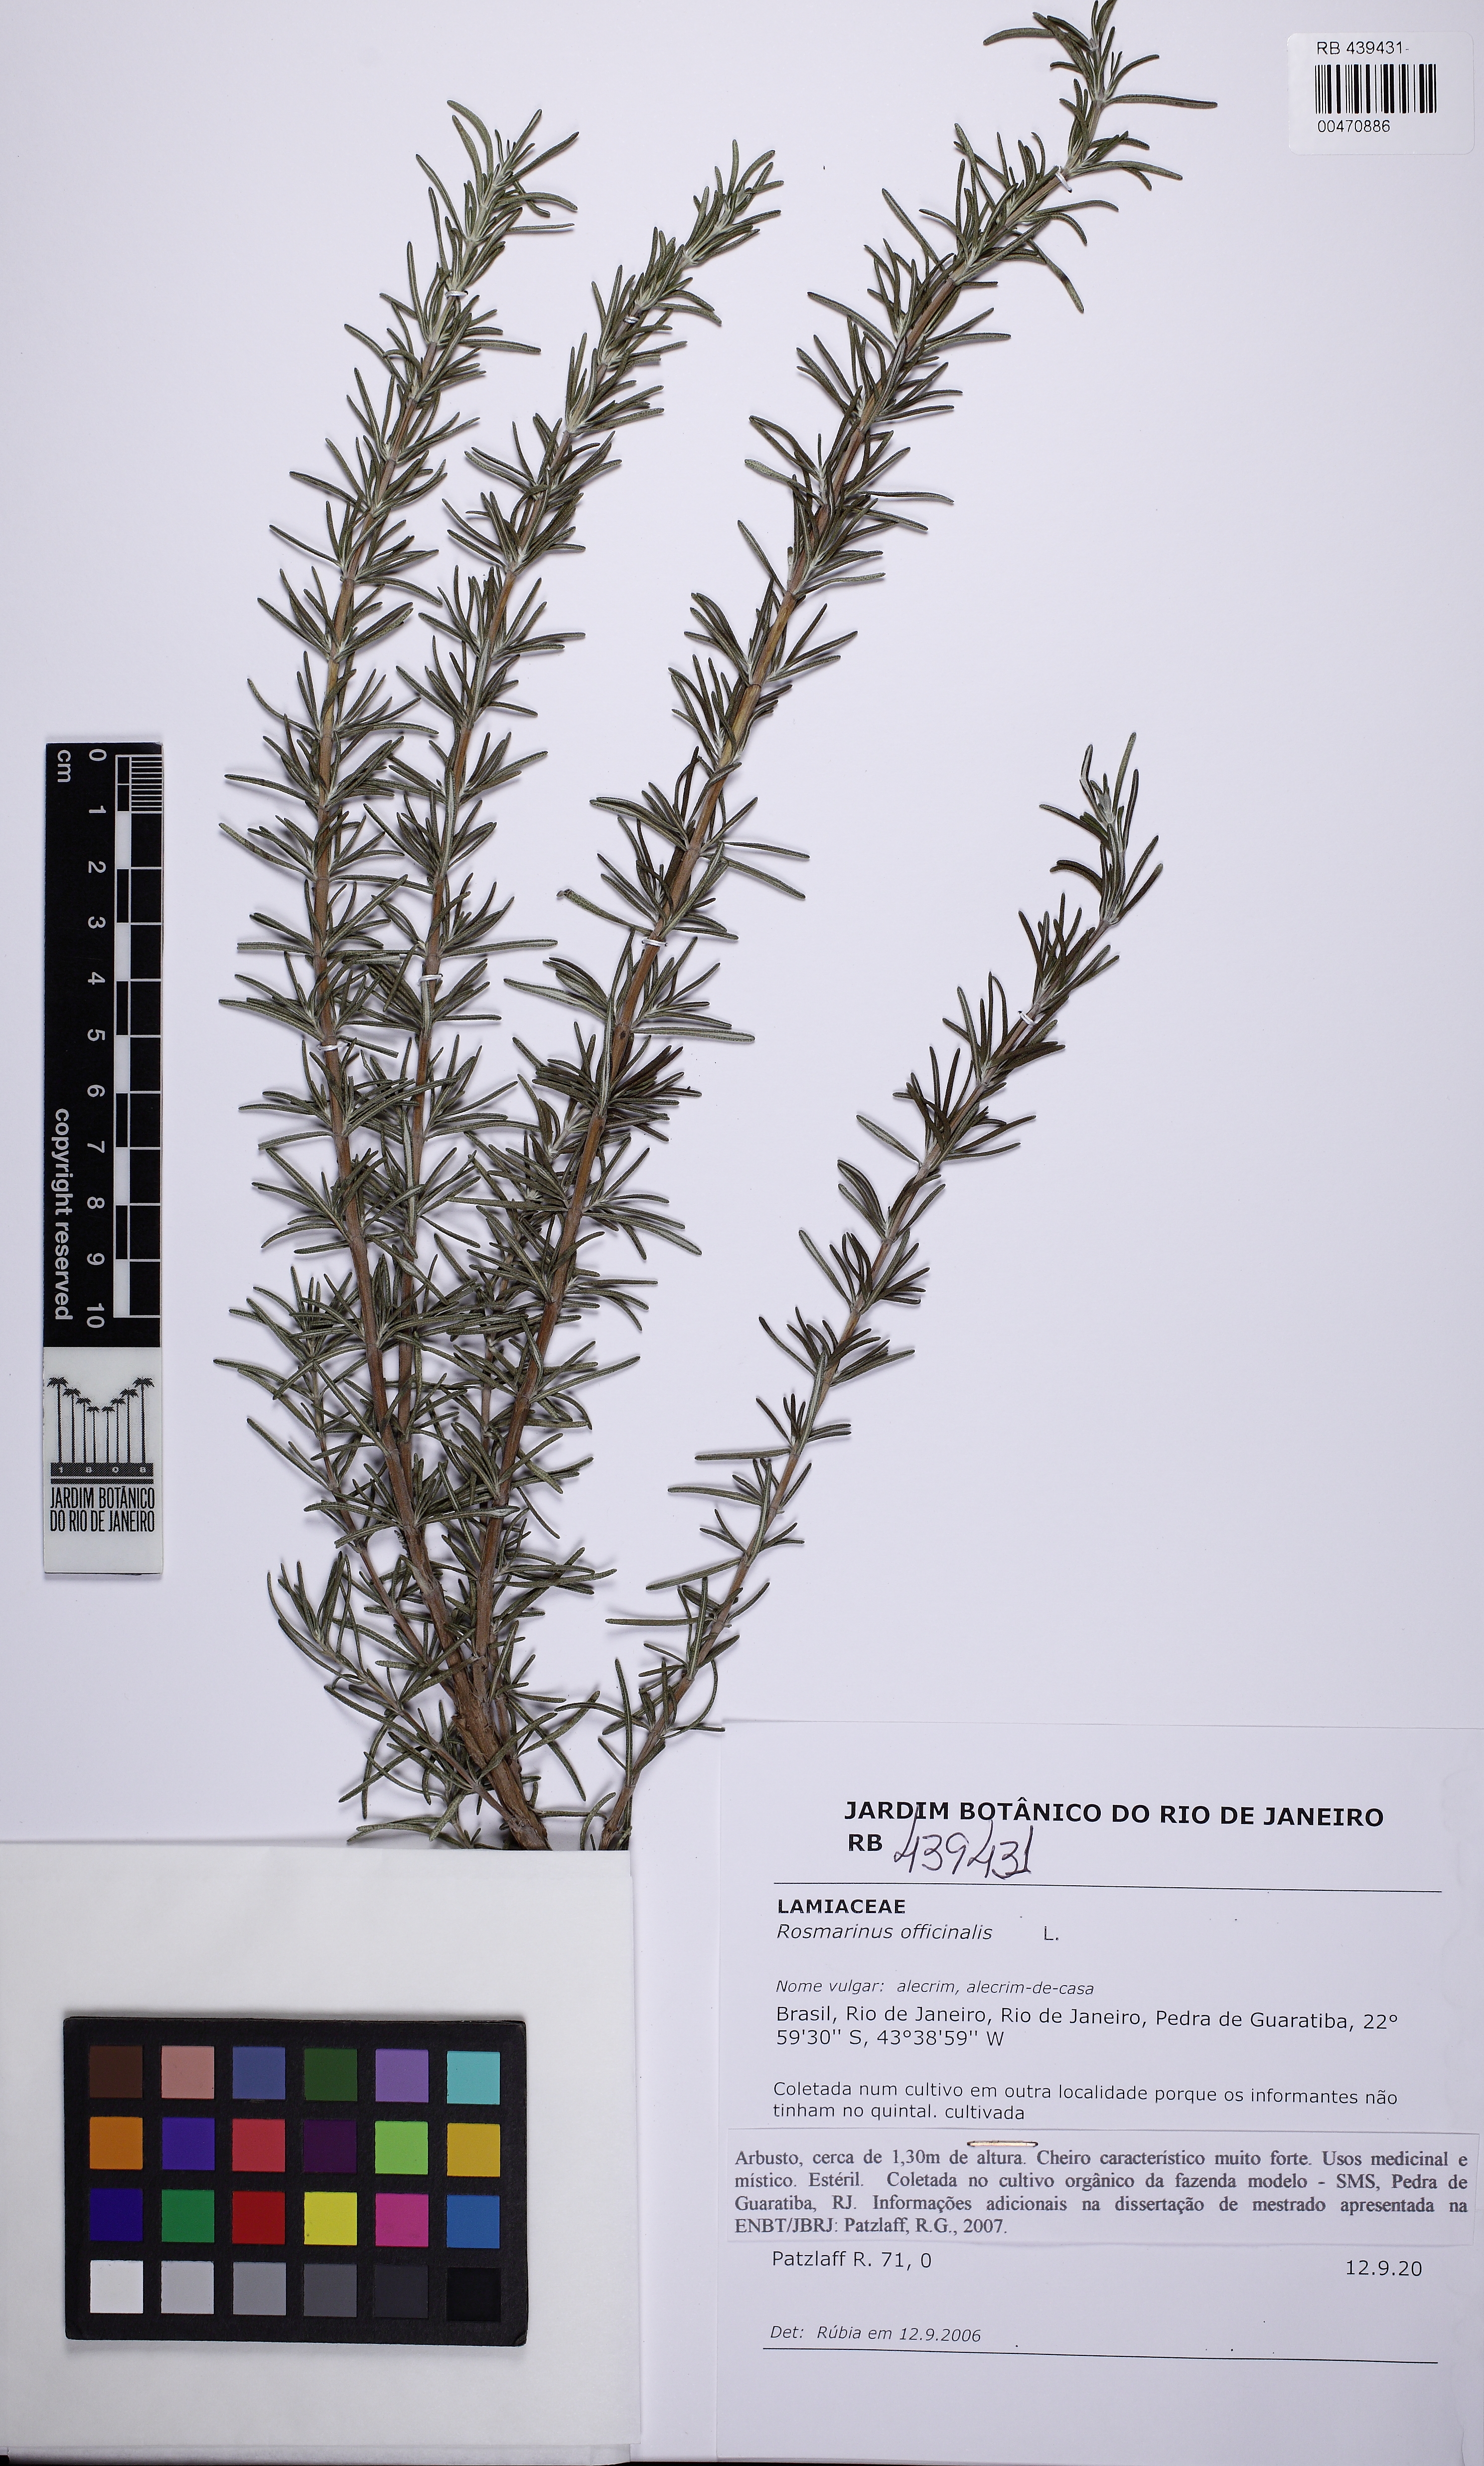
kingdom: Plantae
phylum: Tracheophyta
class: Magnoliopsida
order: Lamiales
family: Lamiaceae
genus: Salvia
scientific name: Salvia rosmarinus
